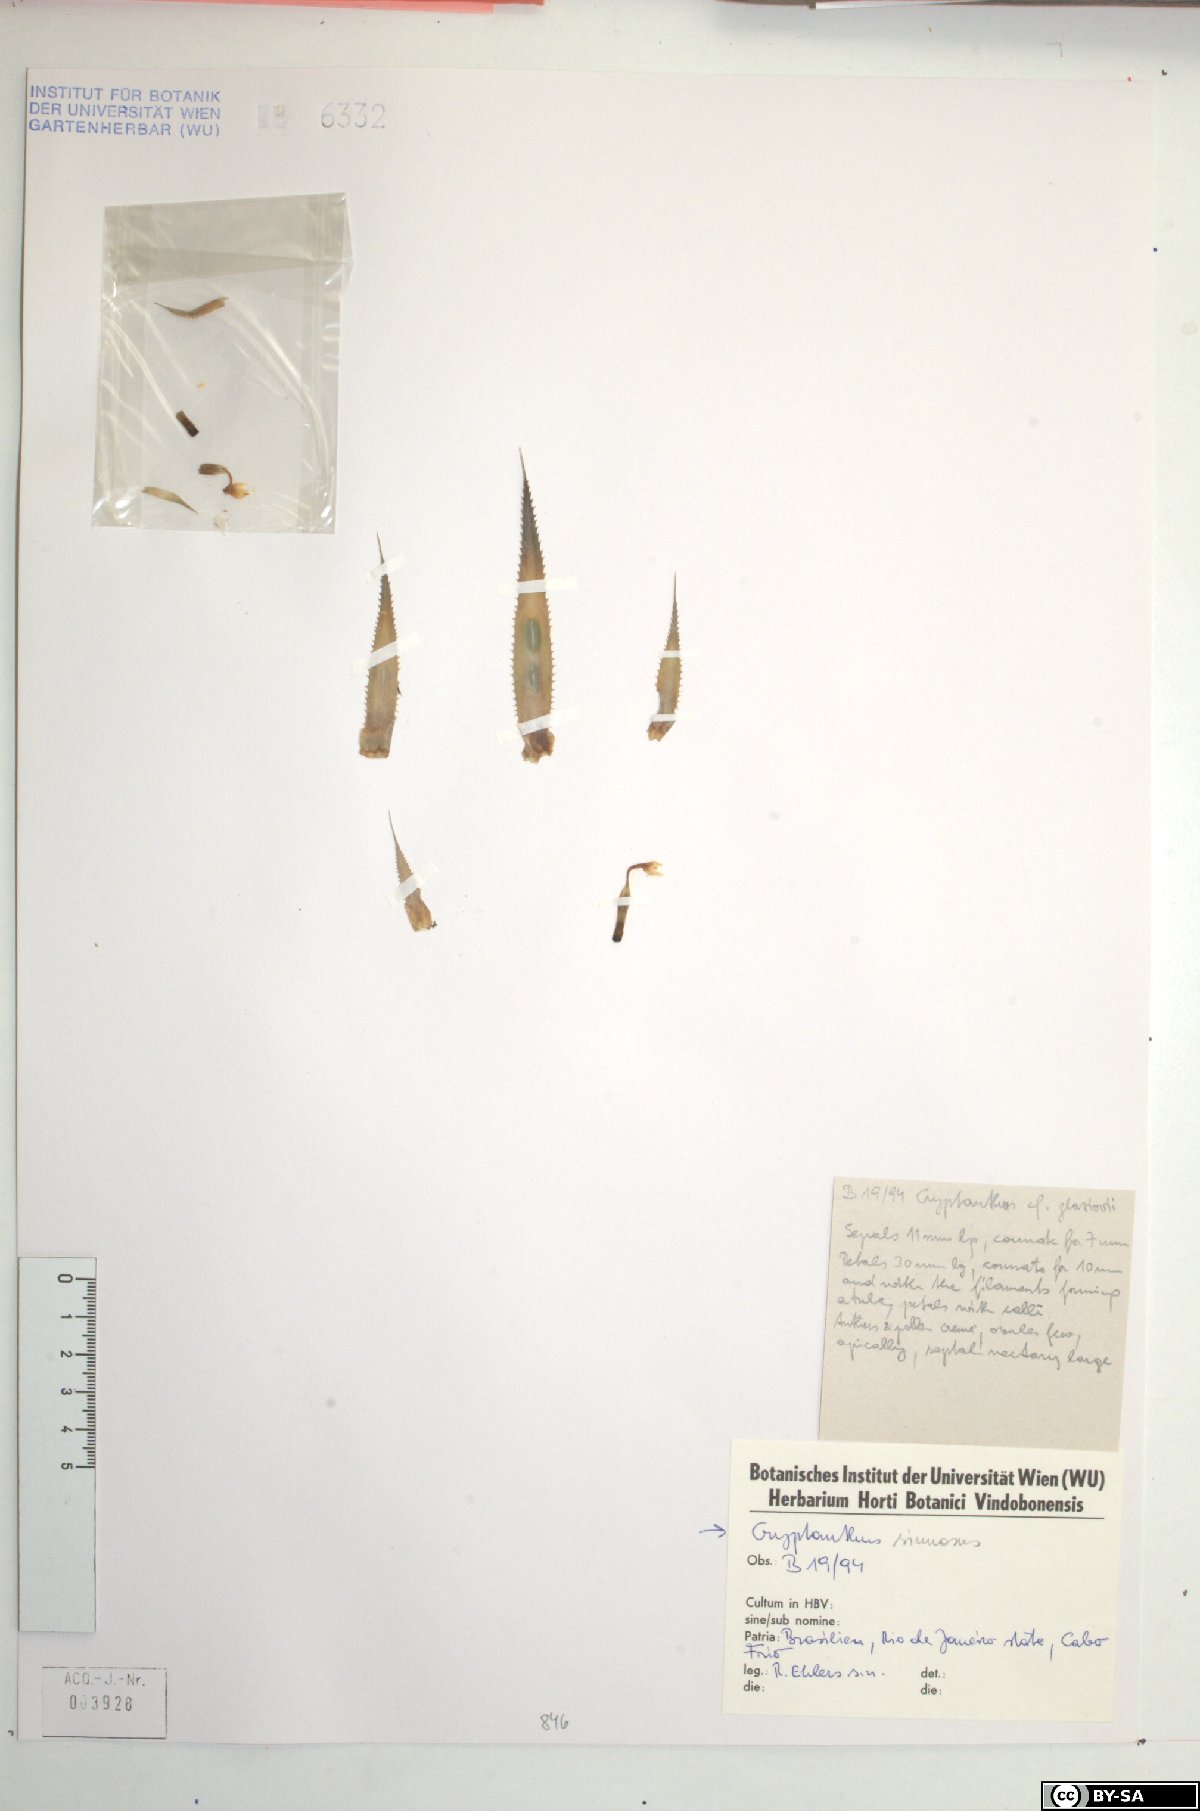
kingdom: Plantae
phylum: Tracheophyta
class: Liliopsida
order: Poales
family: Bromeliaceae
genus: Cryptanthus
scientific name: Cryptanthus acaulis
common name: Starfishplant
